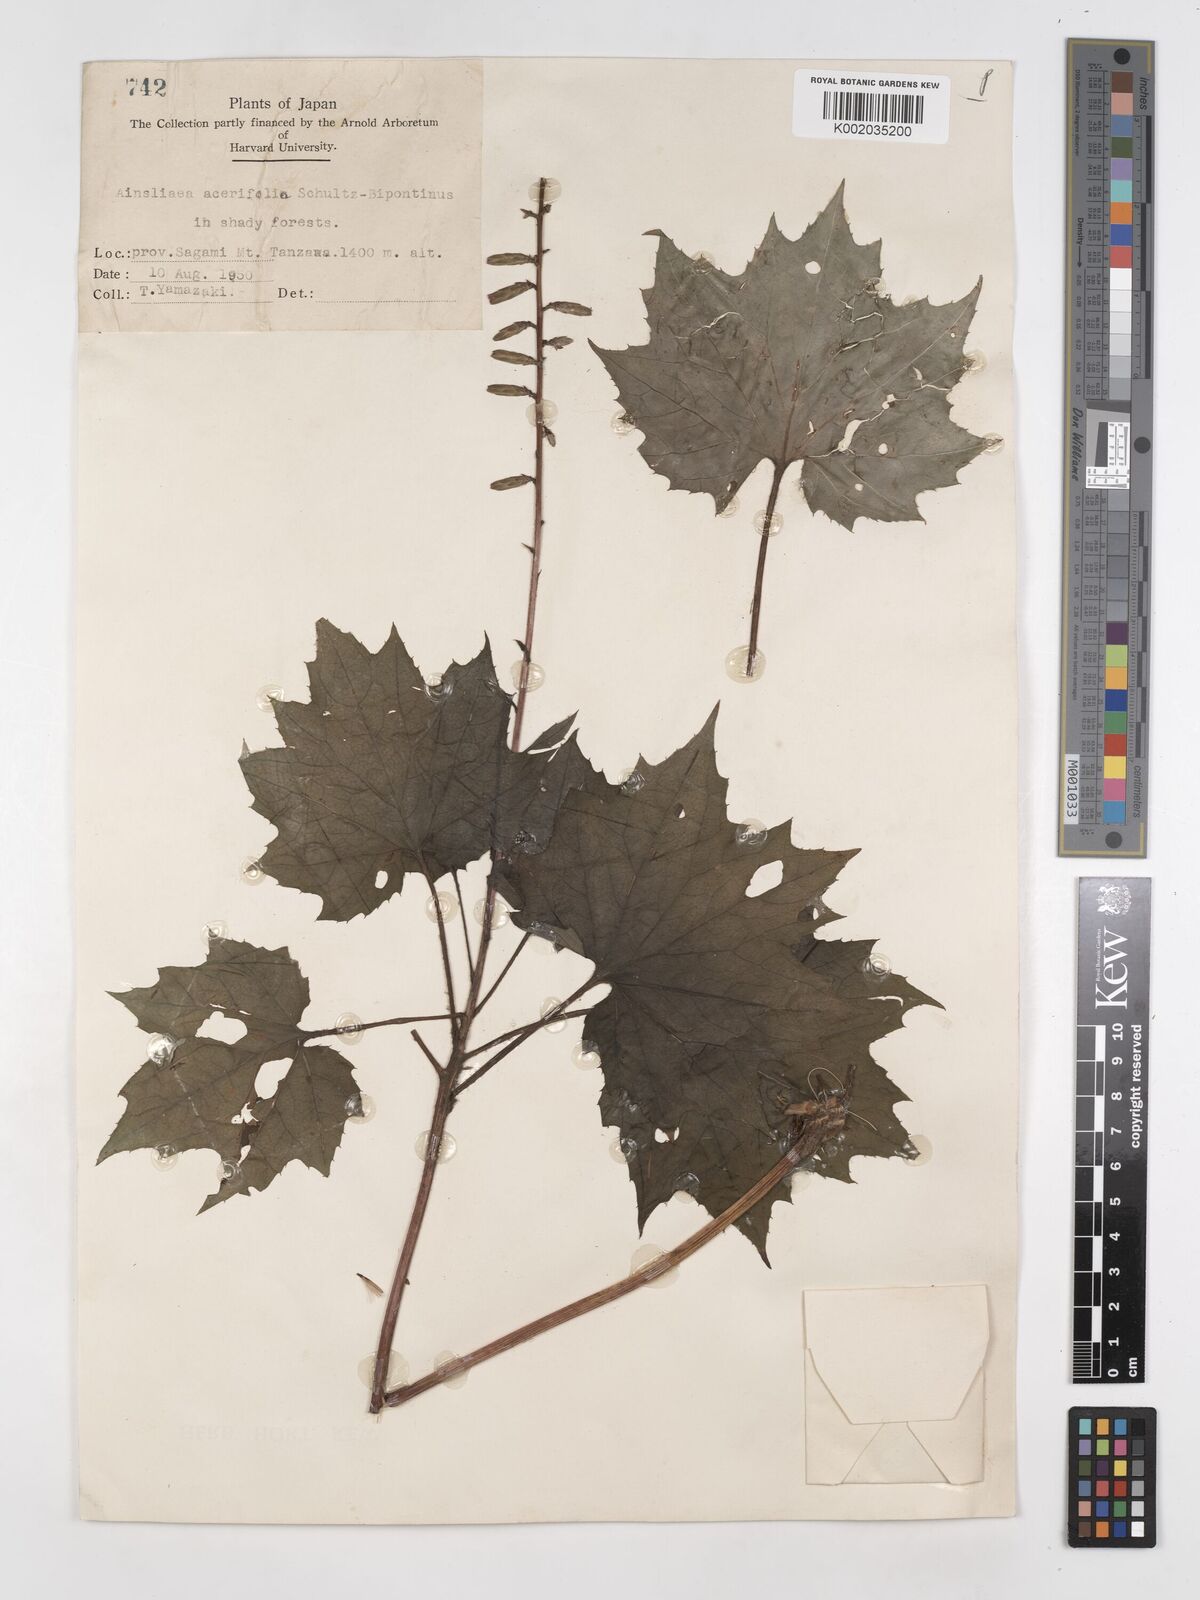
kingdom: Plantae
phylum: Tracheophyta
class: Magnoliopsida
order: Asterales
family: Asteraceae
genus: Ainsliaea
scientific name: Ainsliaea acerifolia
